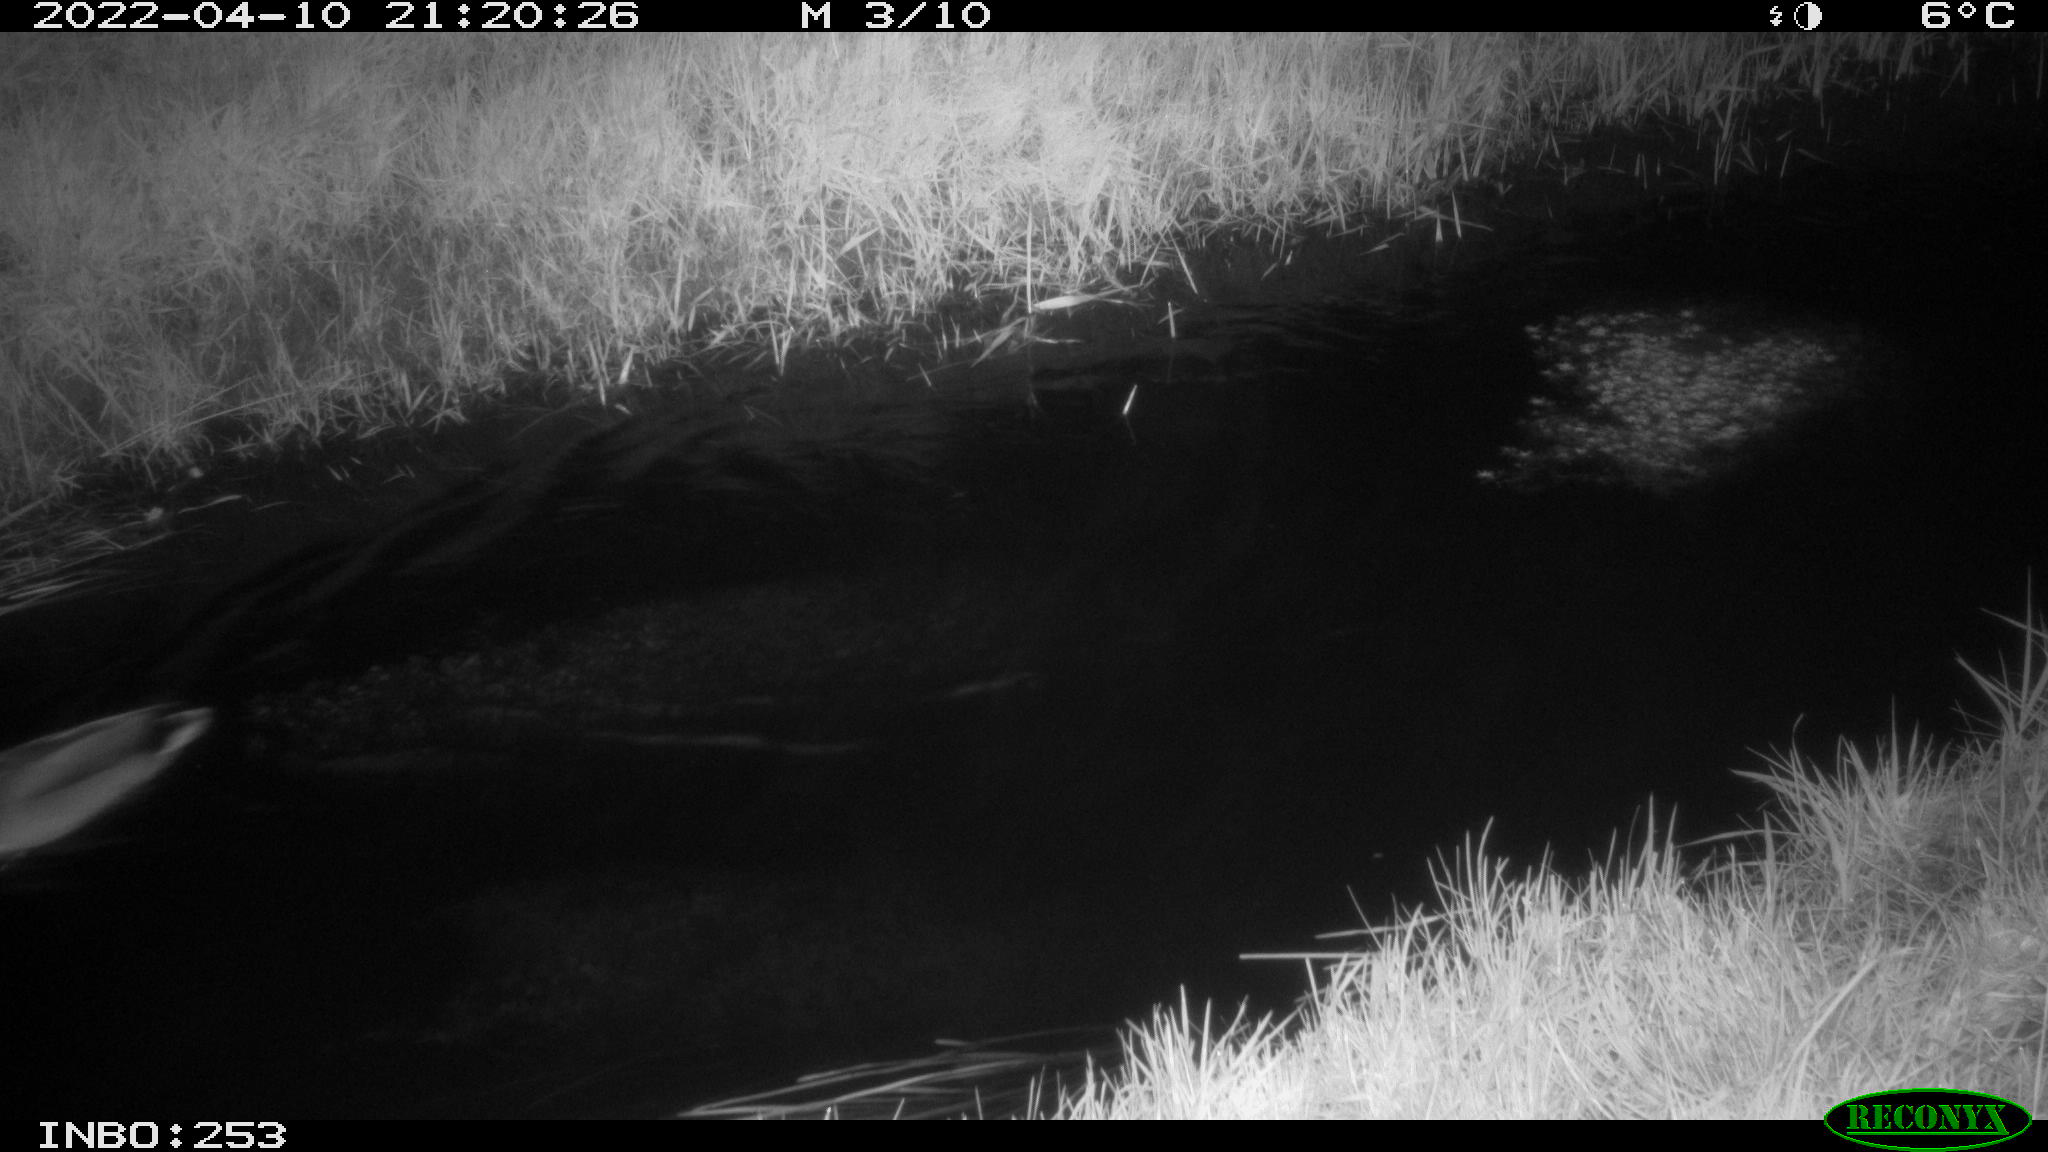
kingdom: Animalia
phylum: Chordata
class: Aves
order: Anseriformes
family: Anatidae
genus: Anas
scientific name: Anas platyrhynchos
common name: Mallard
